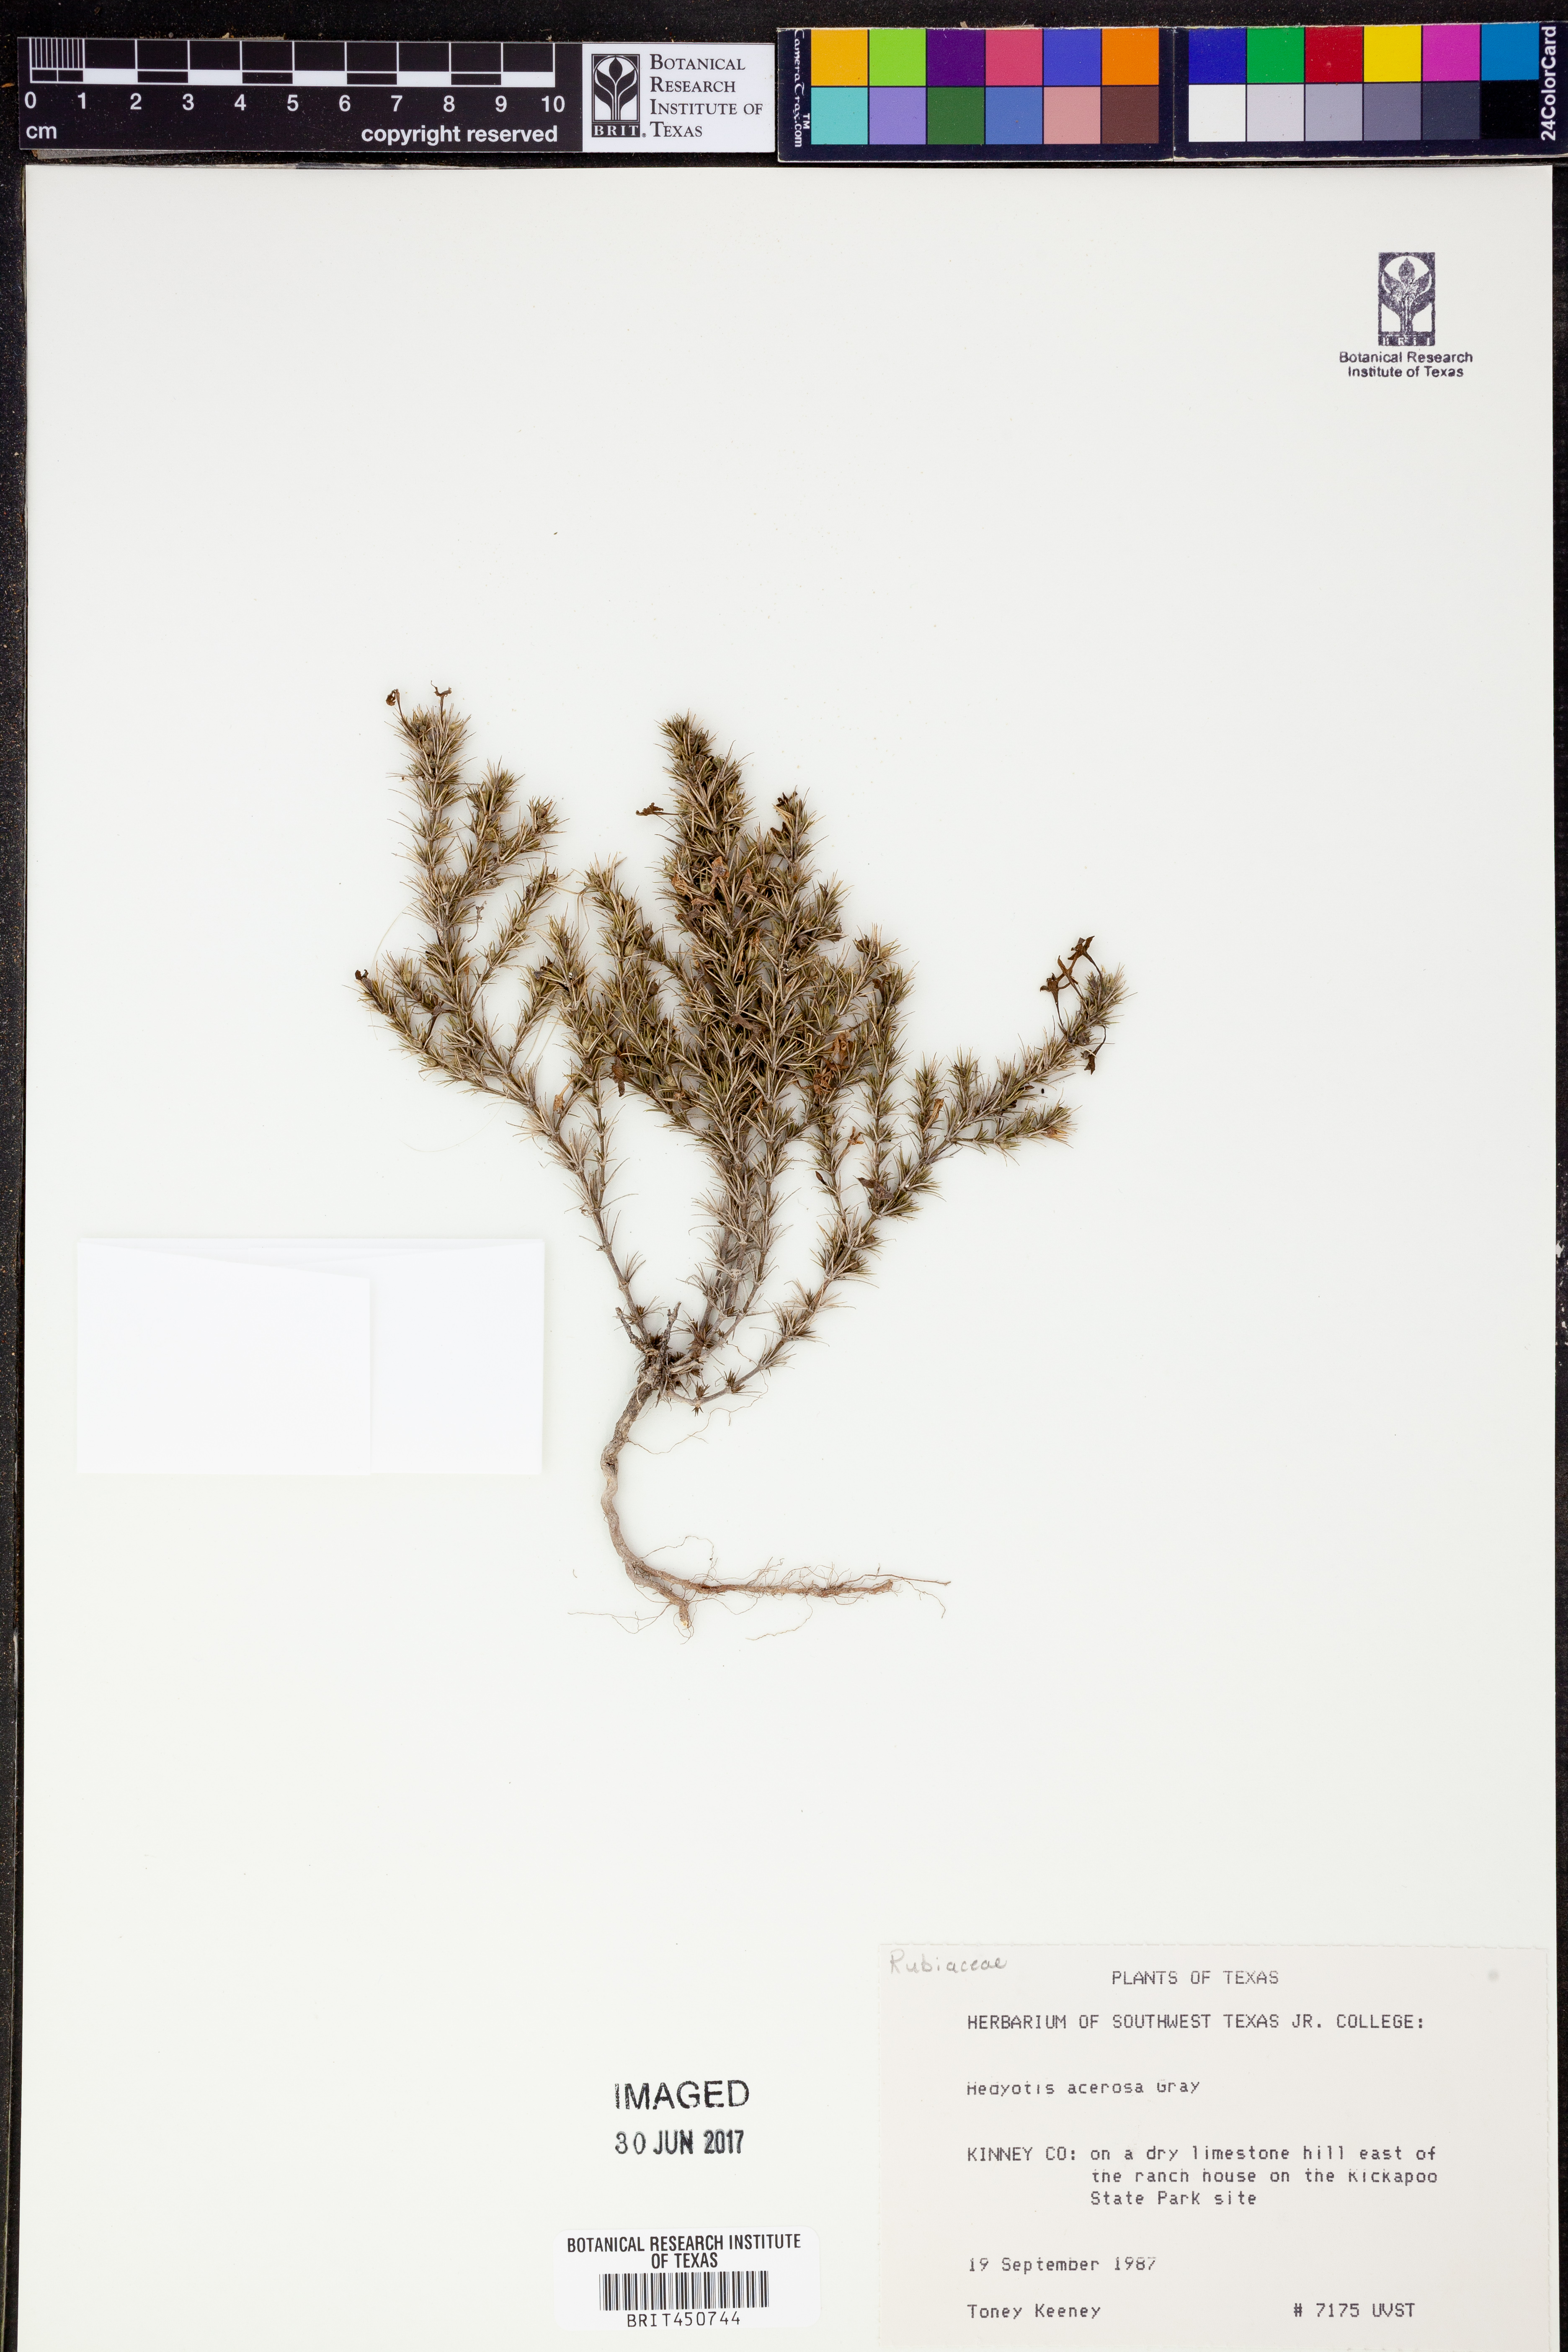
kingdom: Plantae
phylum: Tracheophyta
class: Magnoliopsida
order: Gentianales
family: Rubiaceae
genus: Houstonia
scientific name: Houstonia acerosa
